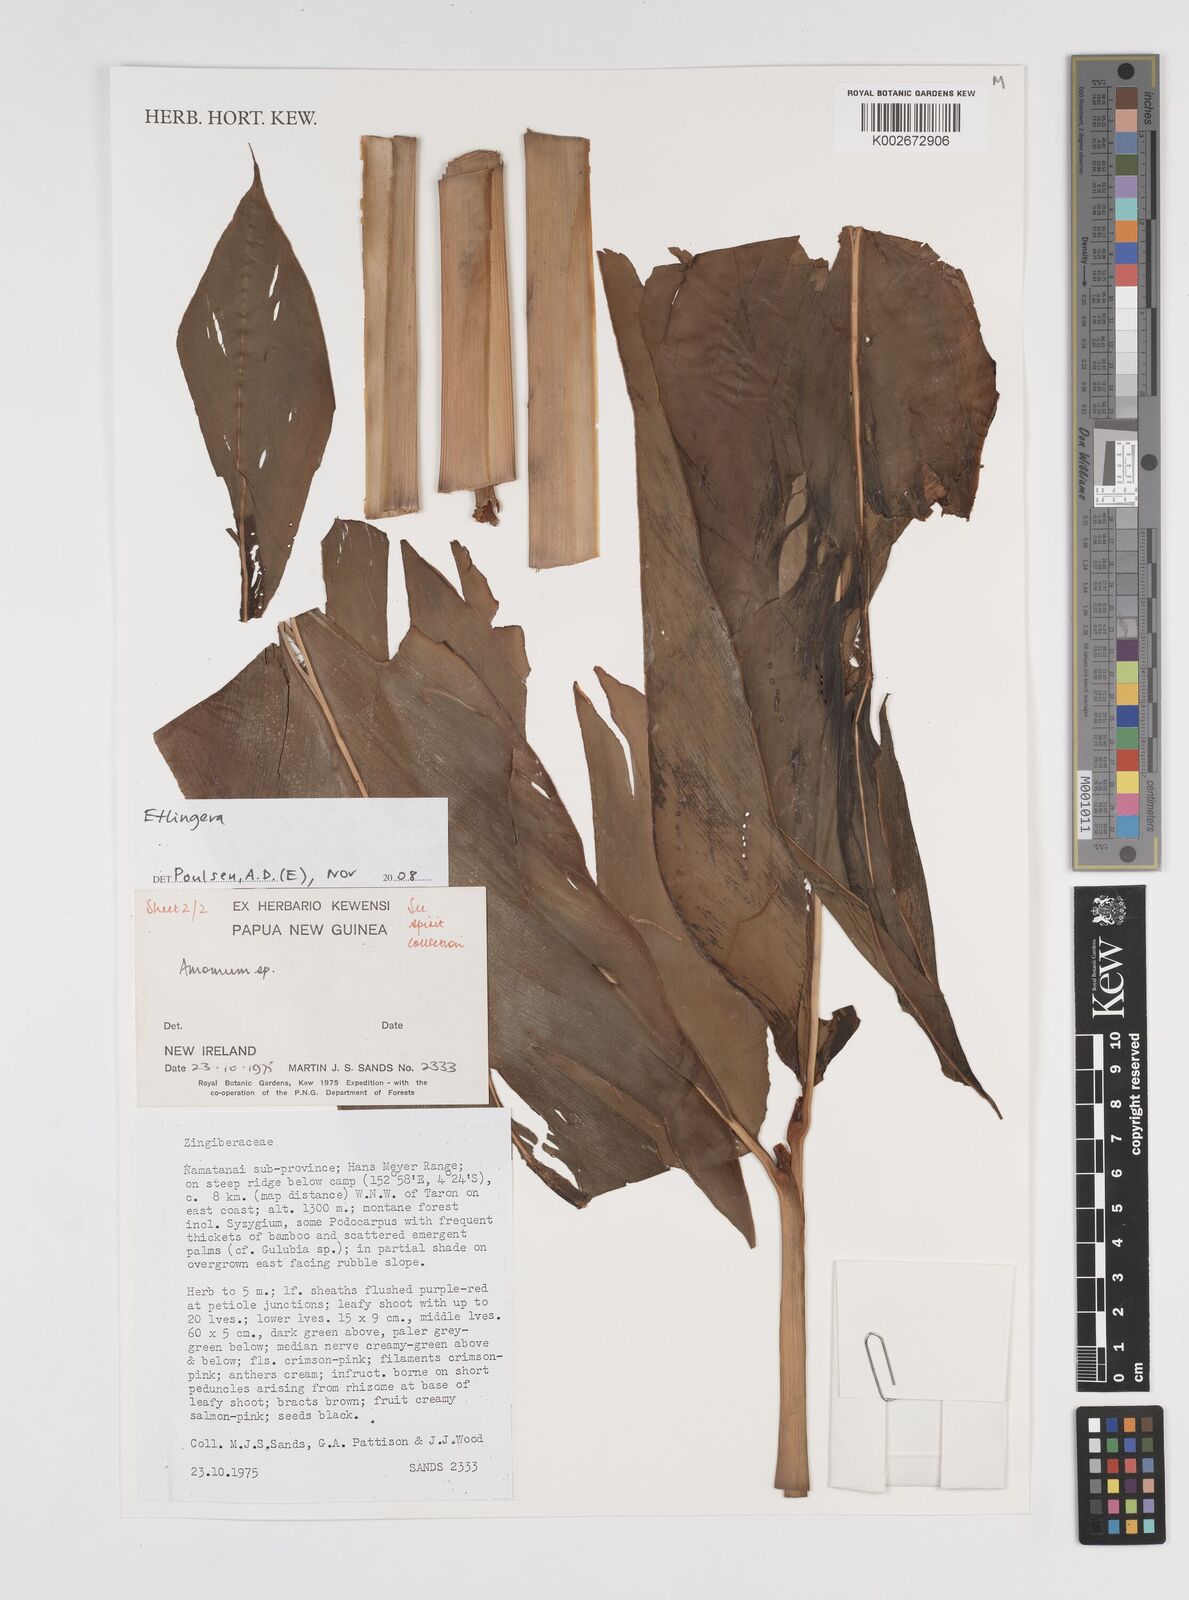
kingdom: Plantae
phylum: Tracheophyta
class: Liliopsida
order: Zingiberales
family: Zingiberaceae
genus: Etlingera
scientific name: Etlingera
